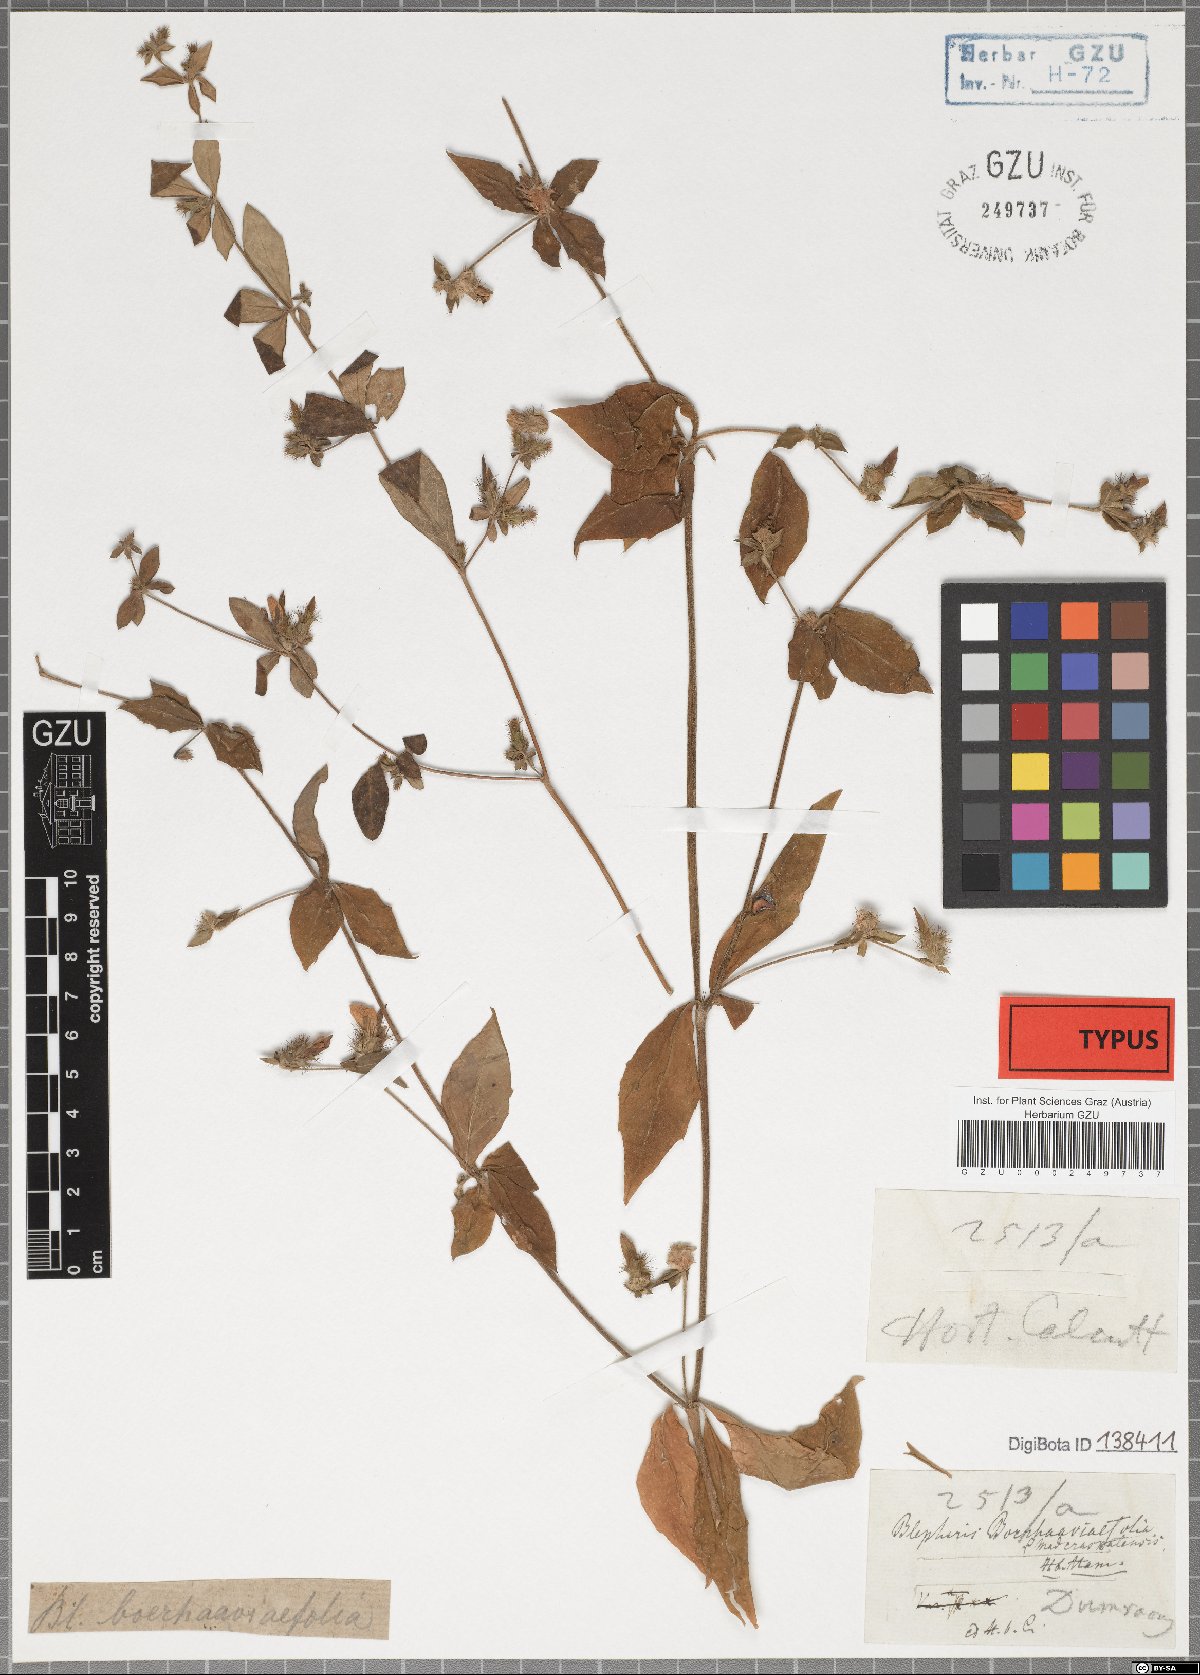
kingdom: Plantae
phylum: Tracheophyta
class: Magnoliopsida
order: Lamiales
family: Acanthaceae
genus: Blepharis
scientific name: Blepharis maderaspatensis
